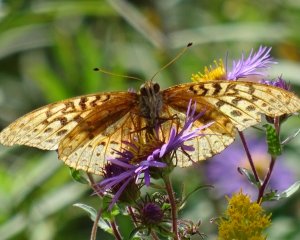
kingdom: Animalia
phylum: Arthropoda
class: Insecta
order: Lepidoptera
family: Nymphalidae
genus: Speyeria
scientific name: Speyeria cybele
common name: Great Spangled Fritillary
